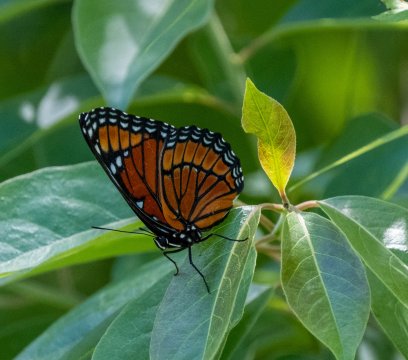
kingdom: Animalia
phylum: Arthropoda
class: Insecta
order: Lepidoptera
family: Nymphalidae
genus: Limenitis
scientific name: Limenitis archippus
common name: Viceroy
